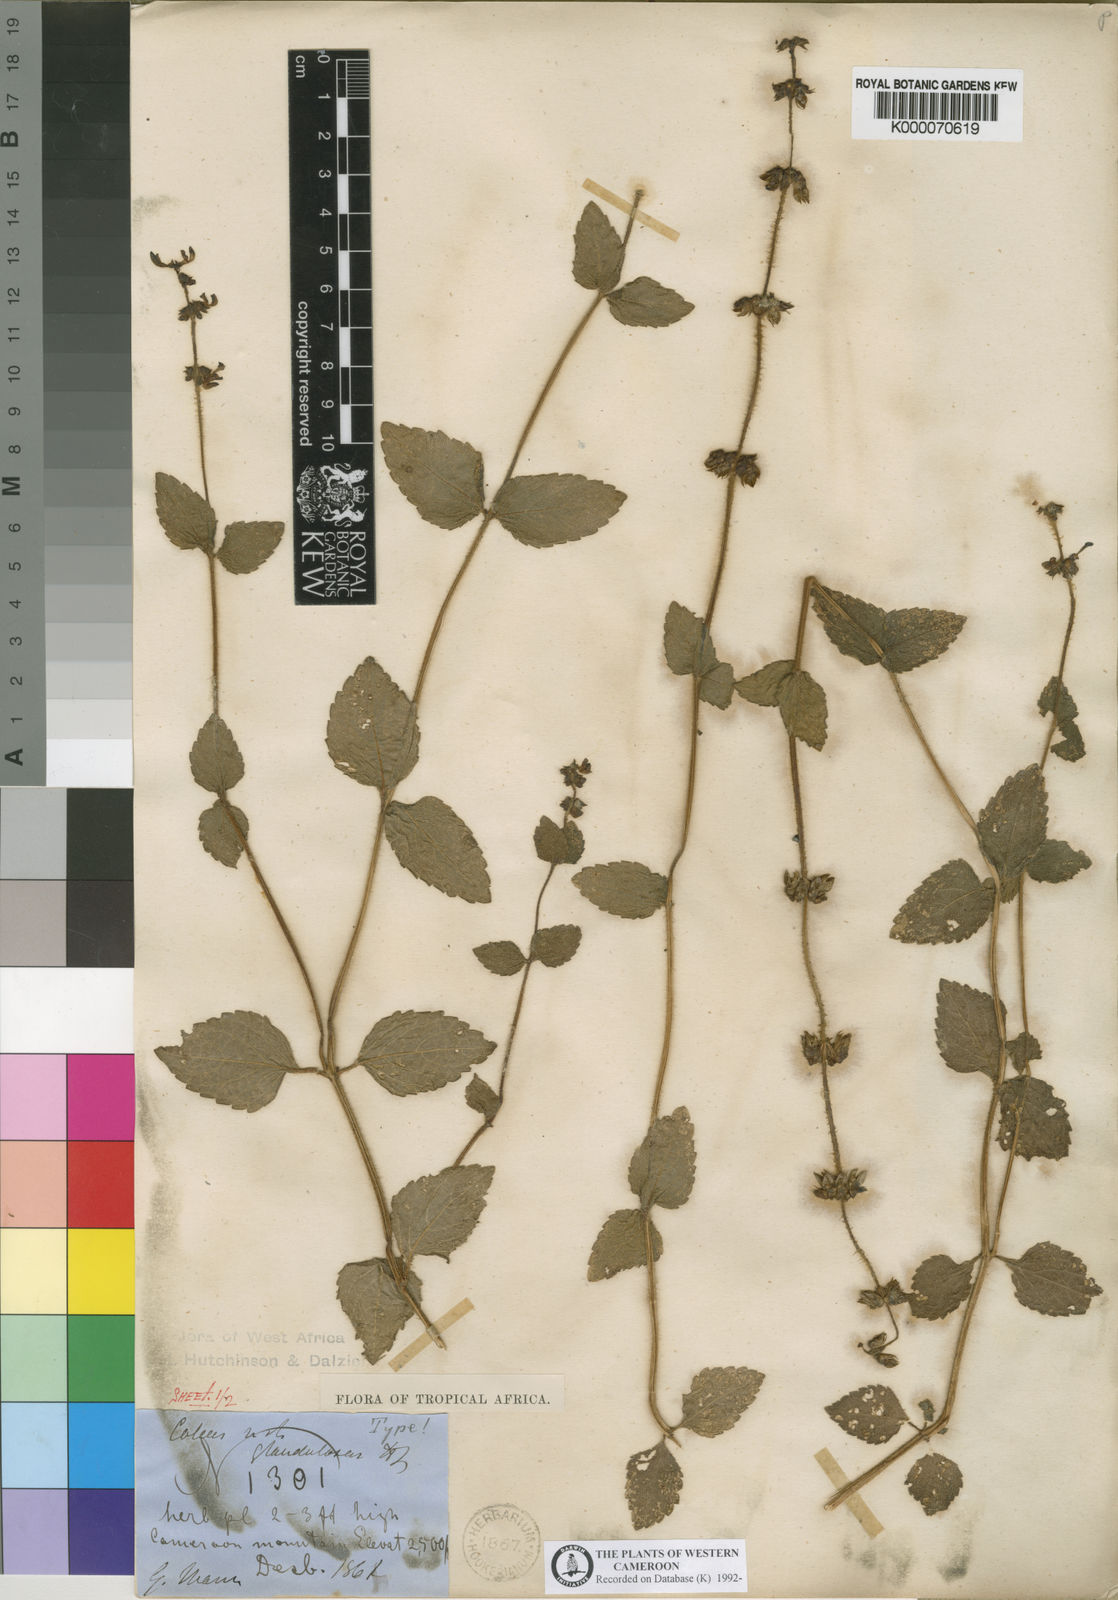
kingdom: Plantae
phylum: Tracheophyta
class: Magnoliopsida
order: Lamiales
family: Lamiaceae
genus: Plectranthus
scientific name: Plectranthus
